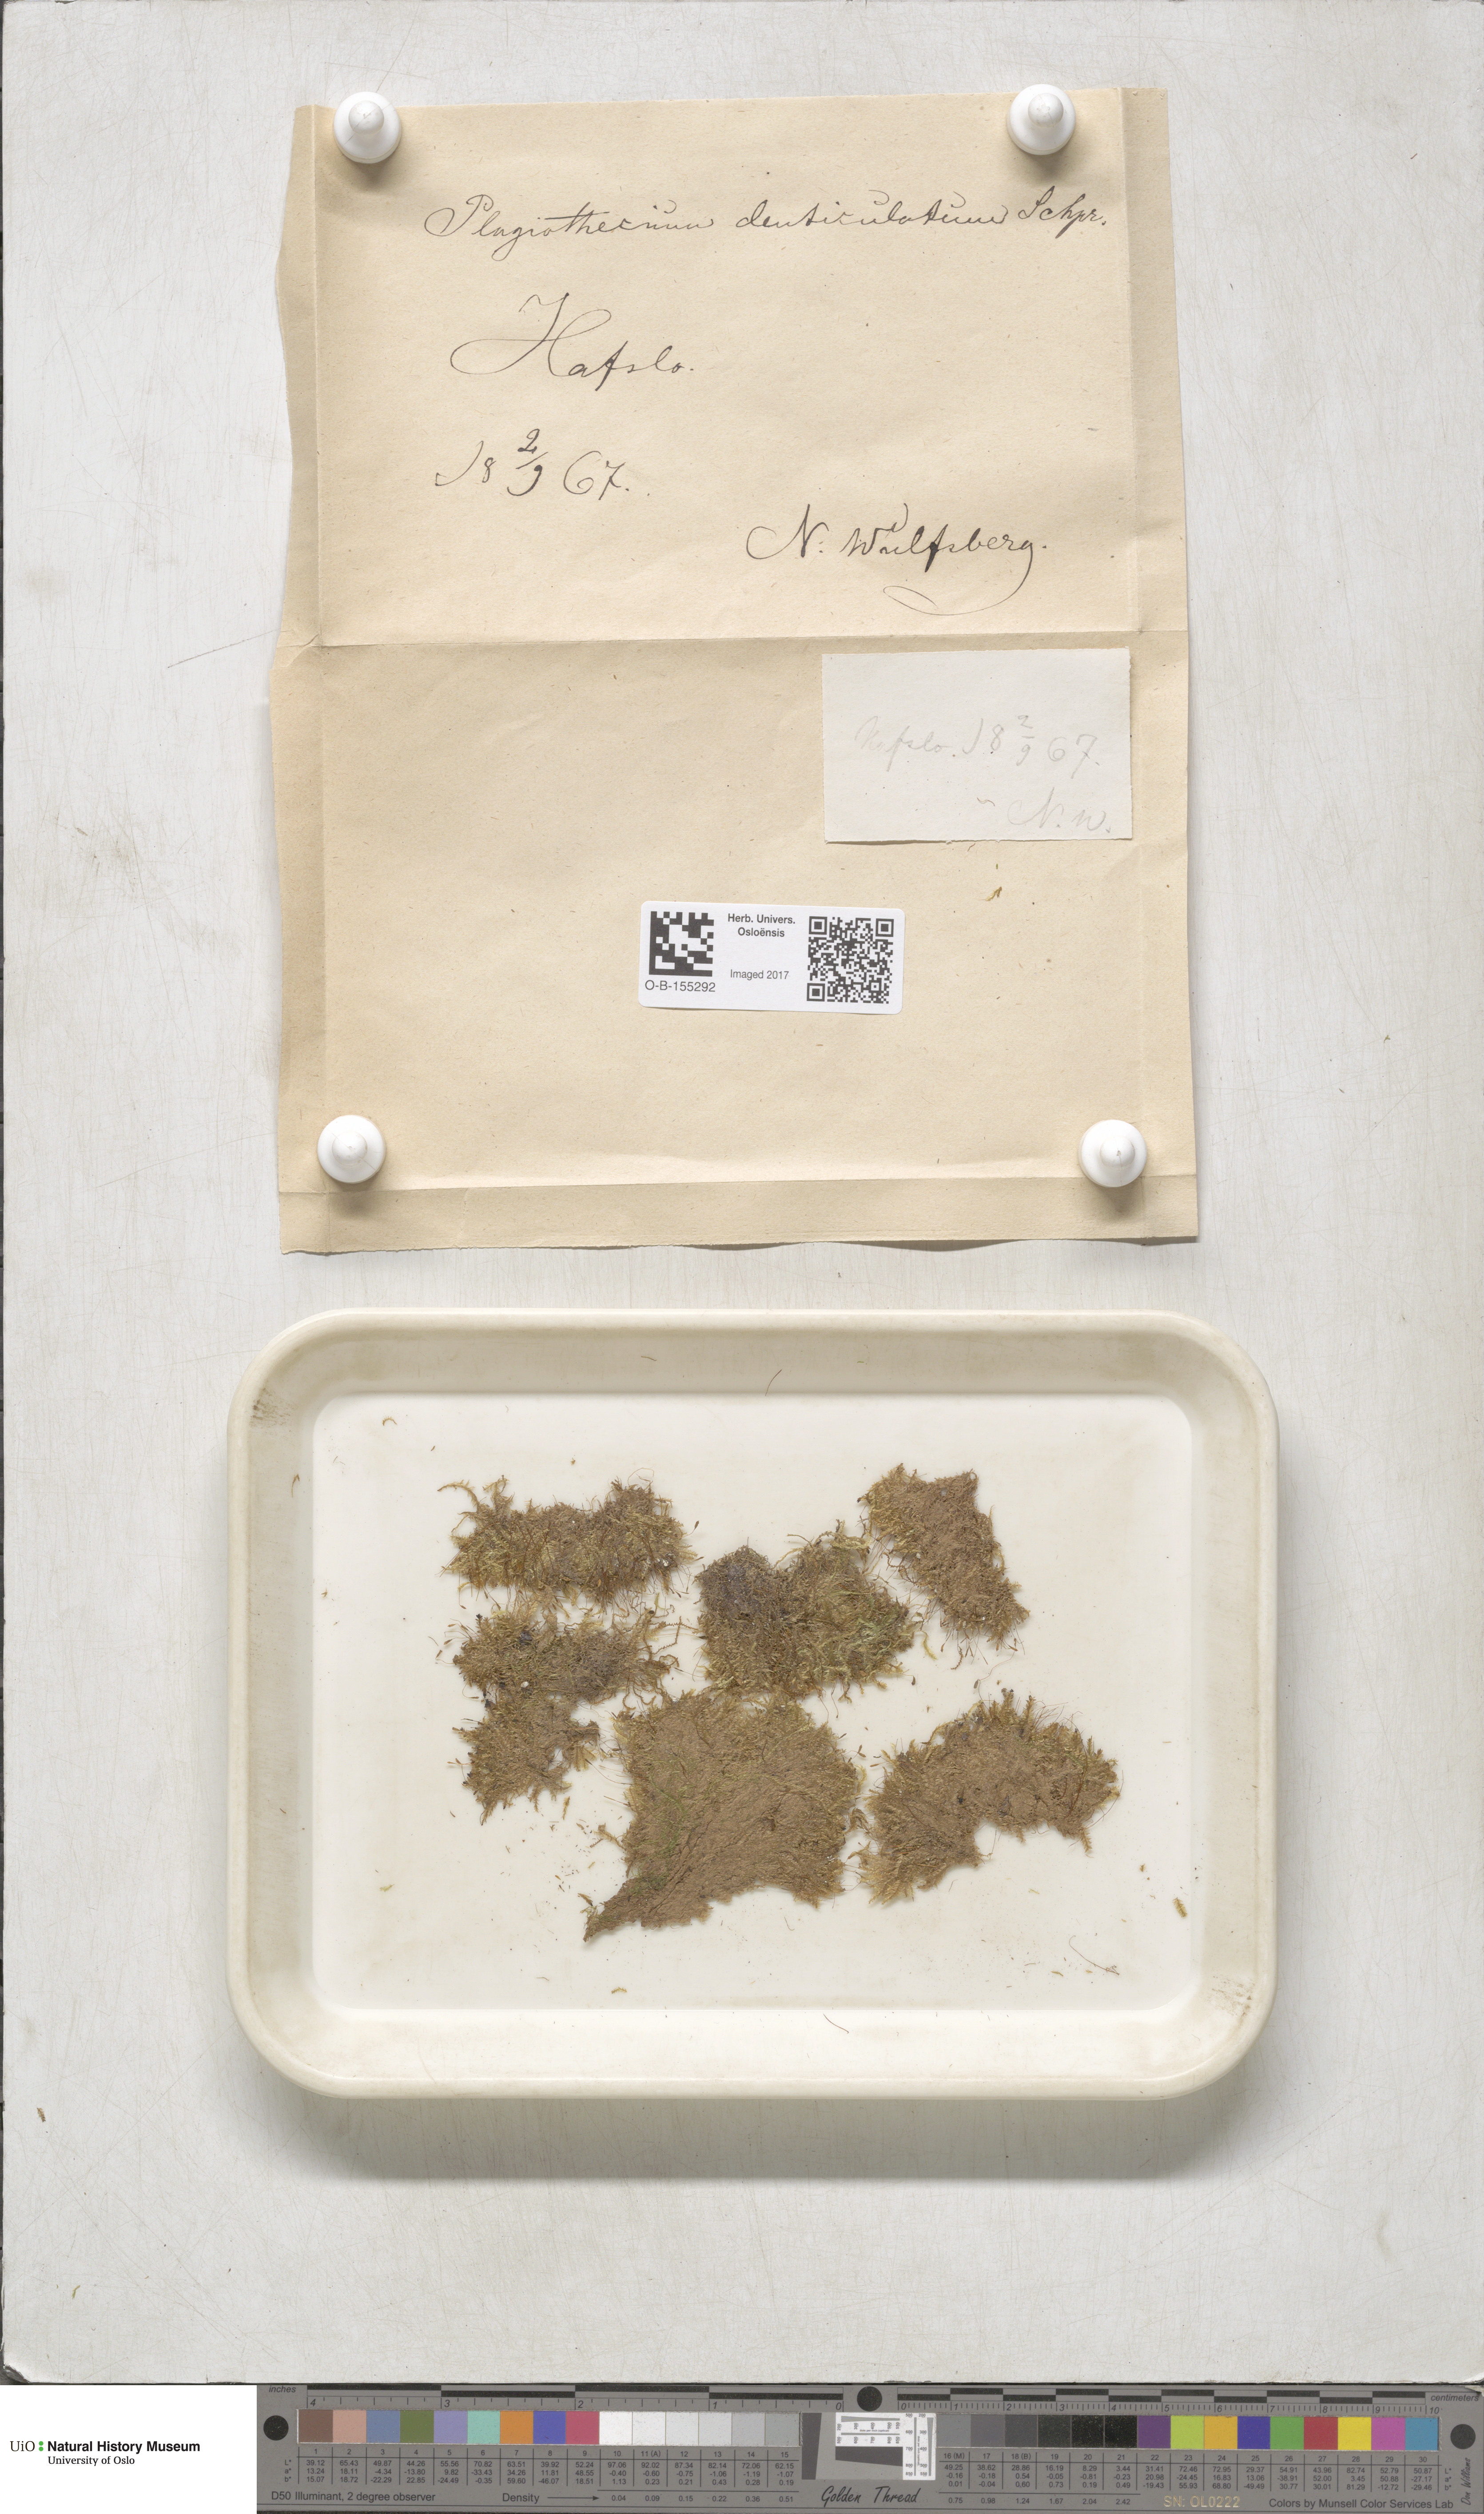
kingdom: Plantae
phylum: Bryophyta
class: Bryopsida
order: Hypnales
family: Plagiotheciaceae
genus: Plagiothecium
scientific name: Plagiothecium denticulatum
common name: Dented silk moss
